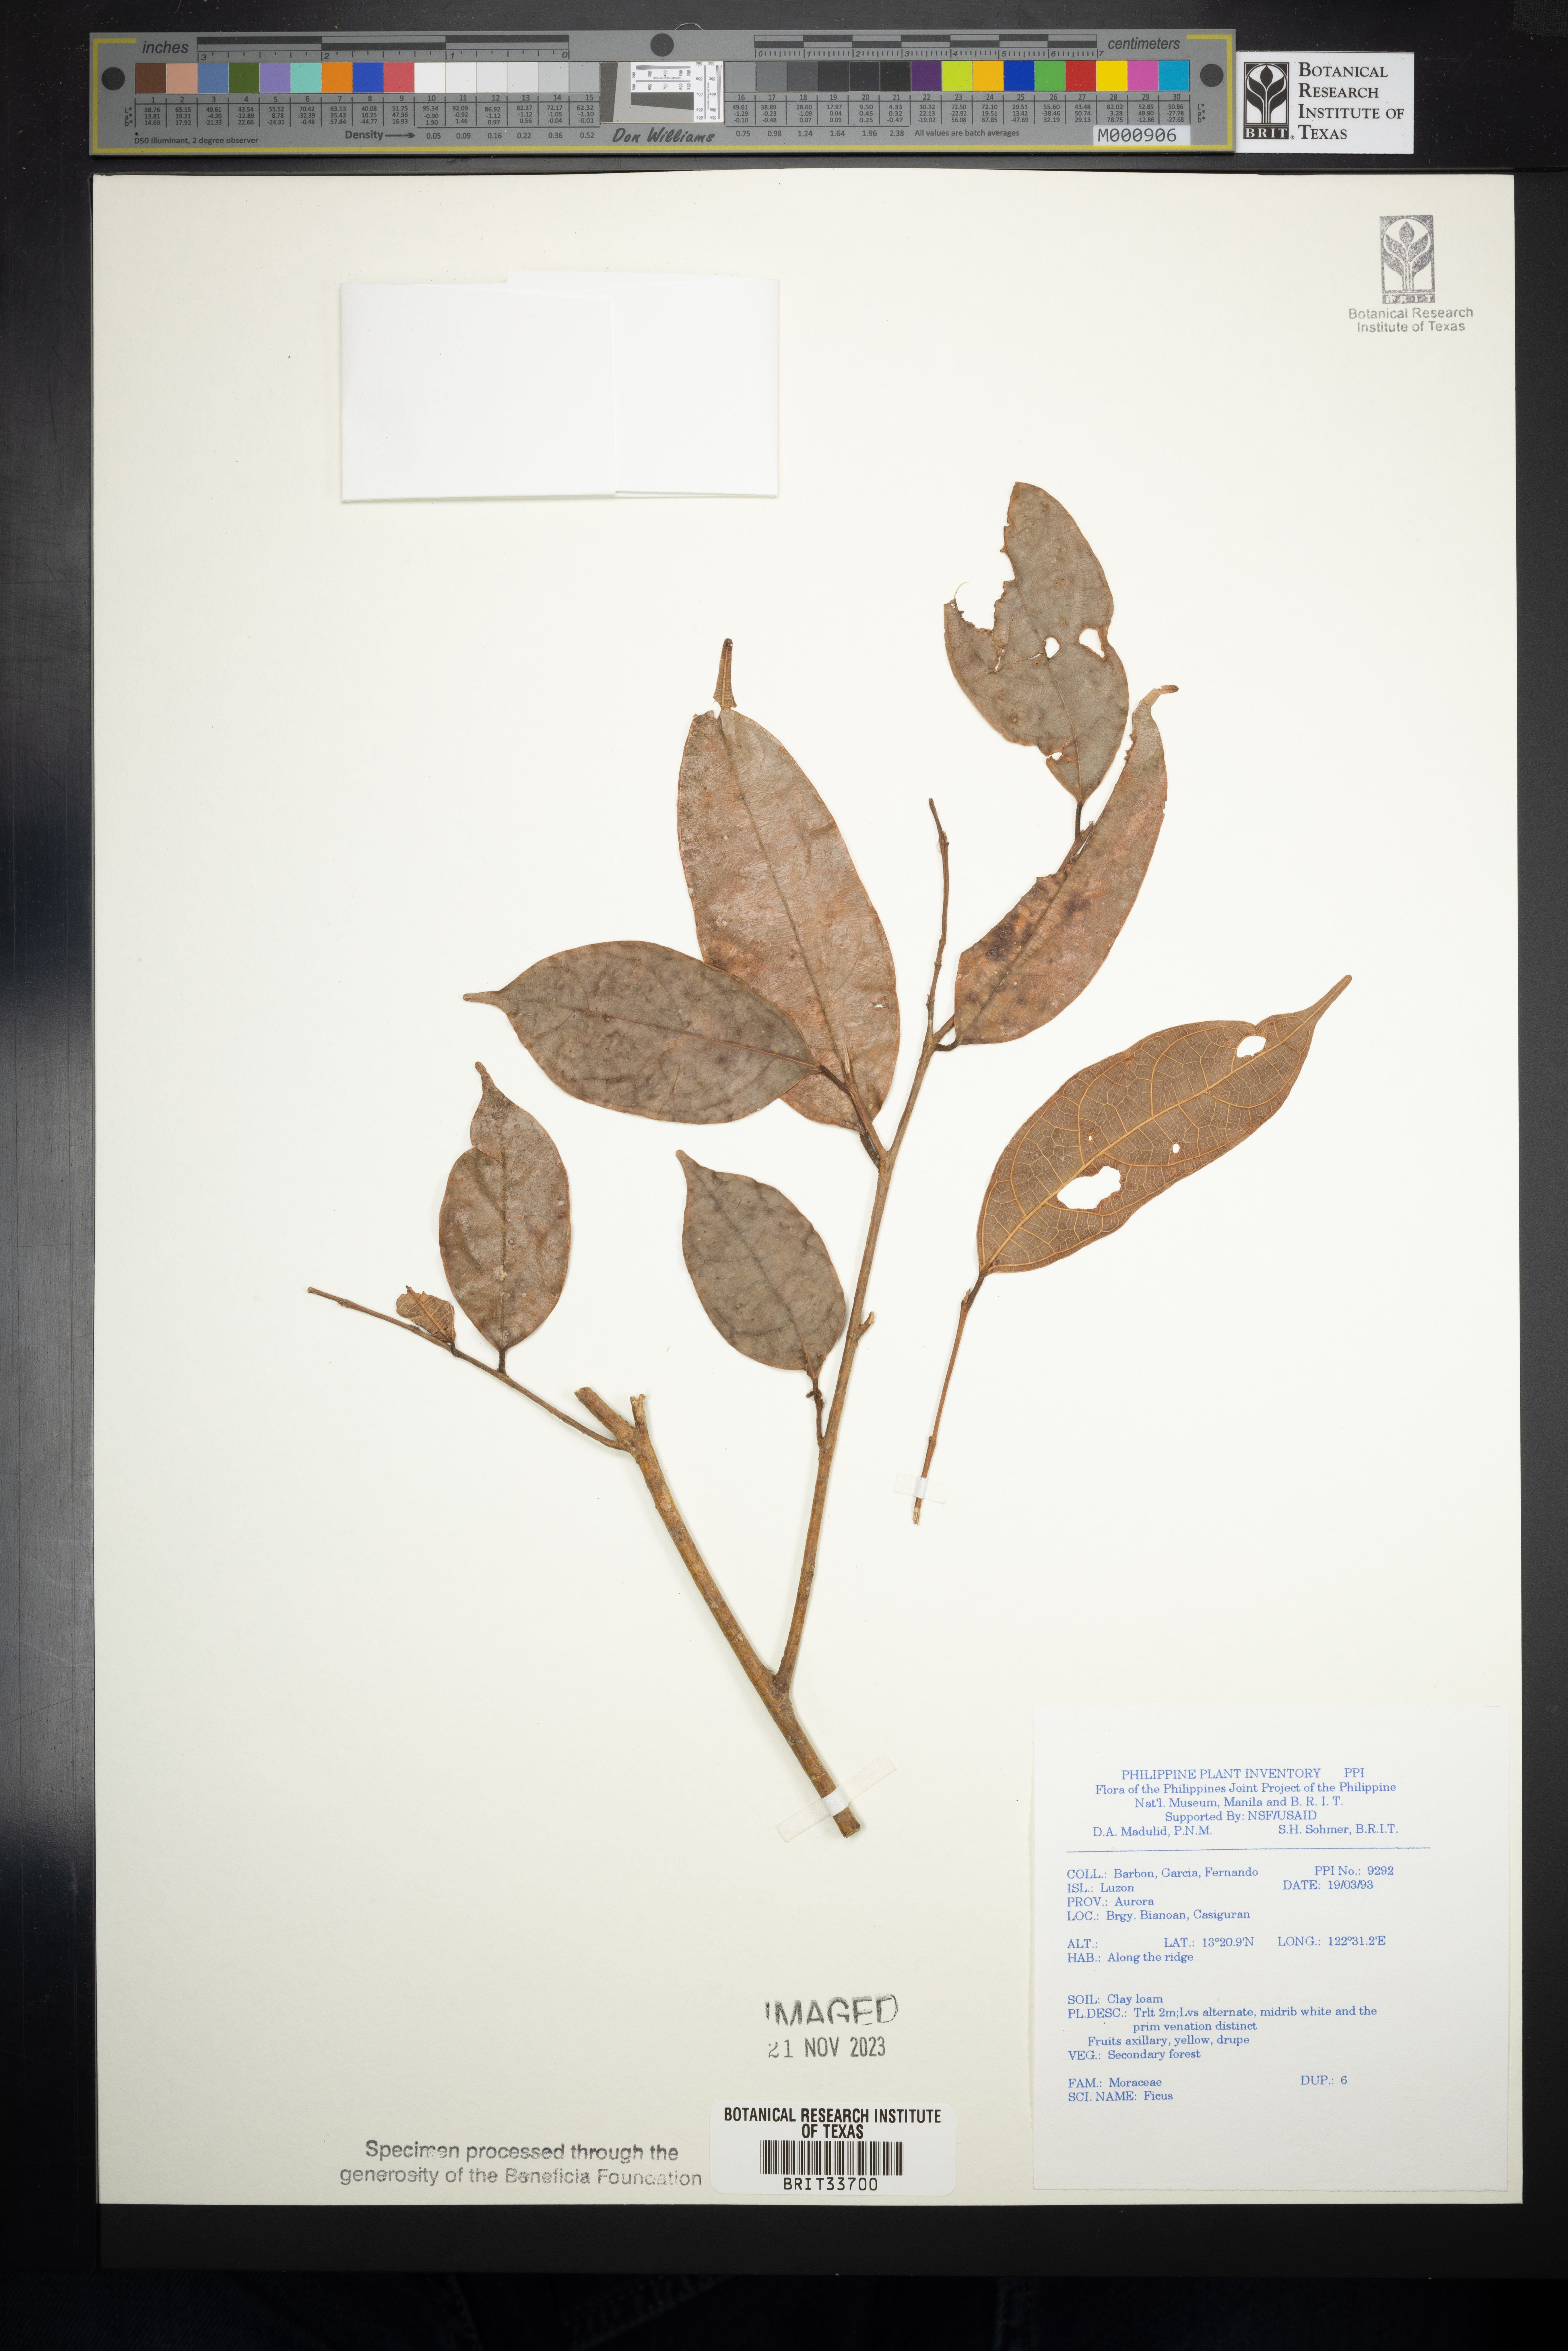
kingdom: Plantae
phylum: Tracheophyta
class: Magnoliopsida
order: Rosales
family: Moraceae
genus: Ficus
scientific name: Ficus
